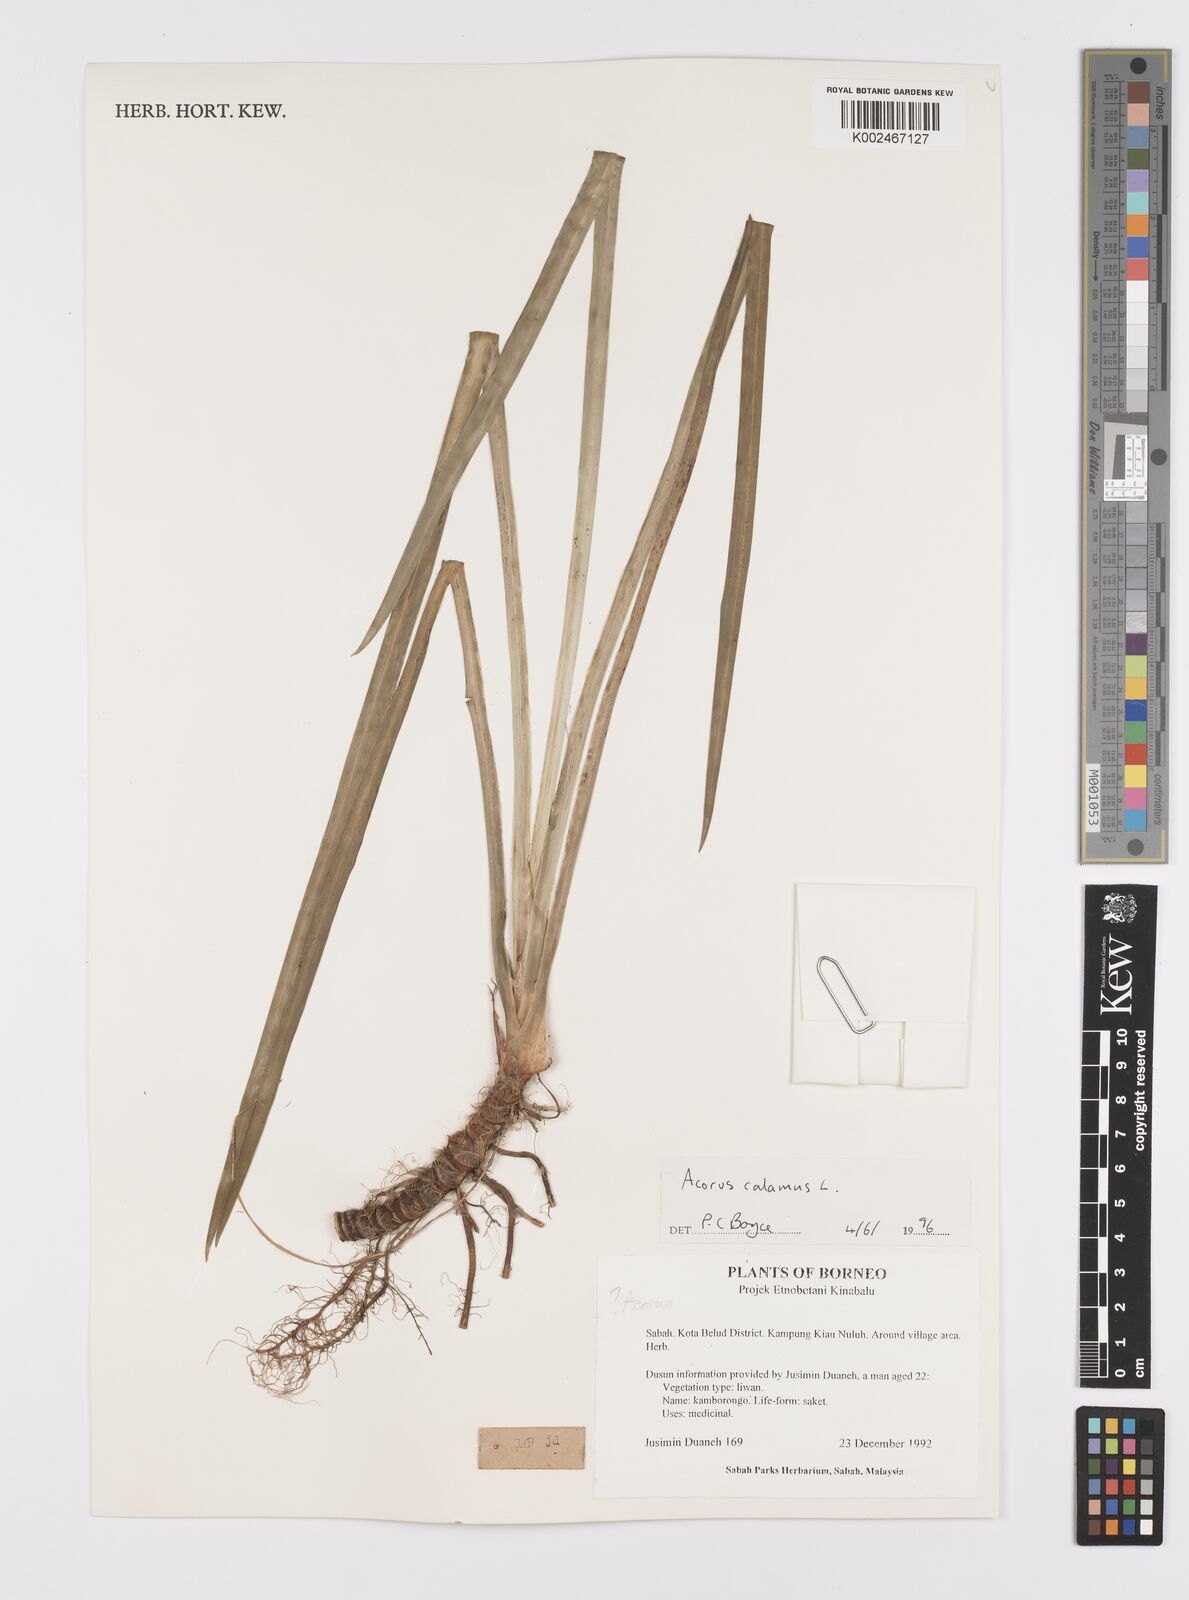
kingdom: Plantae
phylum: Tracheophyta
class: Liliopsida
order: Acorales
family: Acoraceae
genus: Acorus
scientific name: Acorus calamus
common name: Sweet-flag
